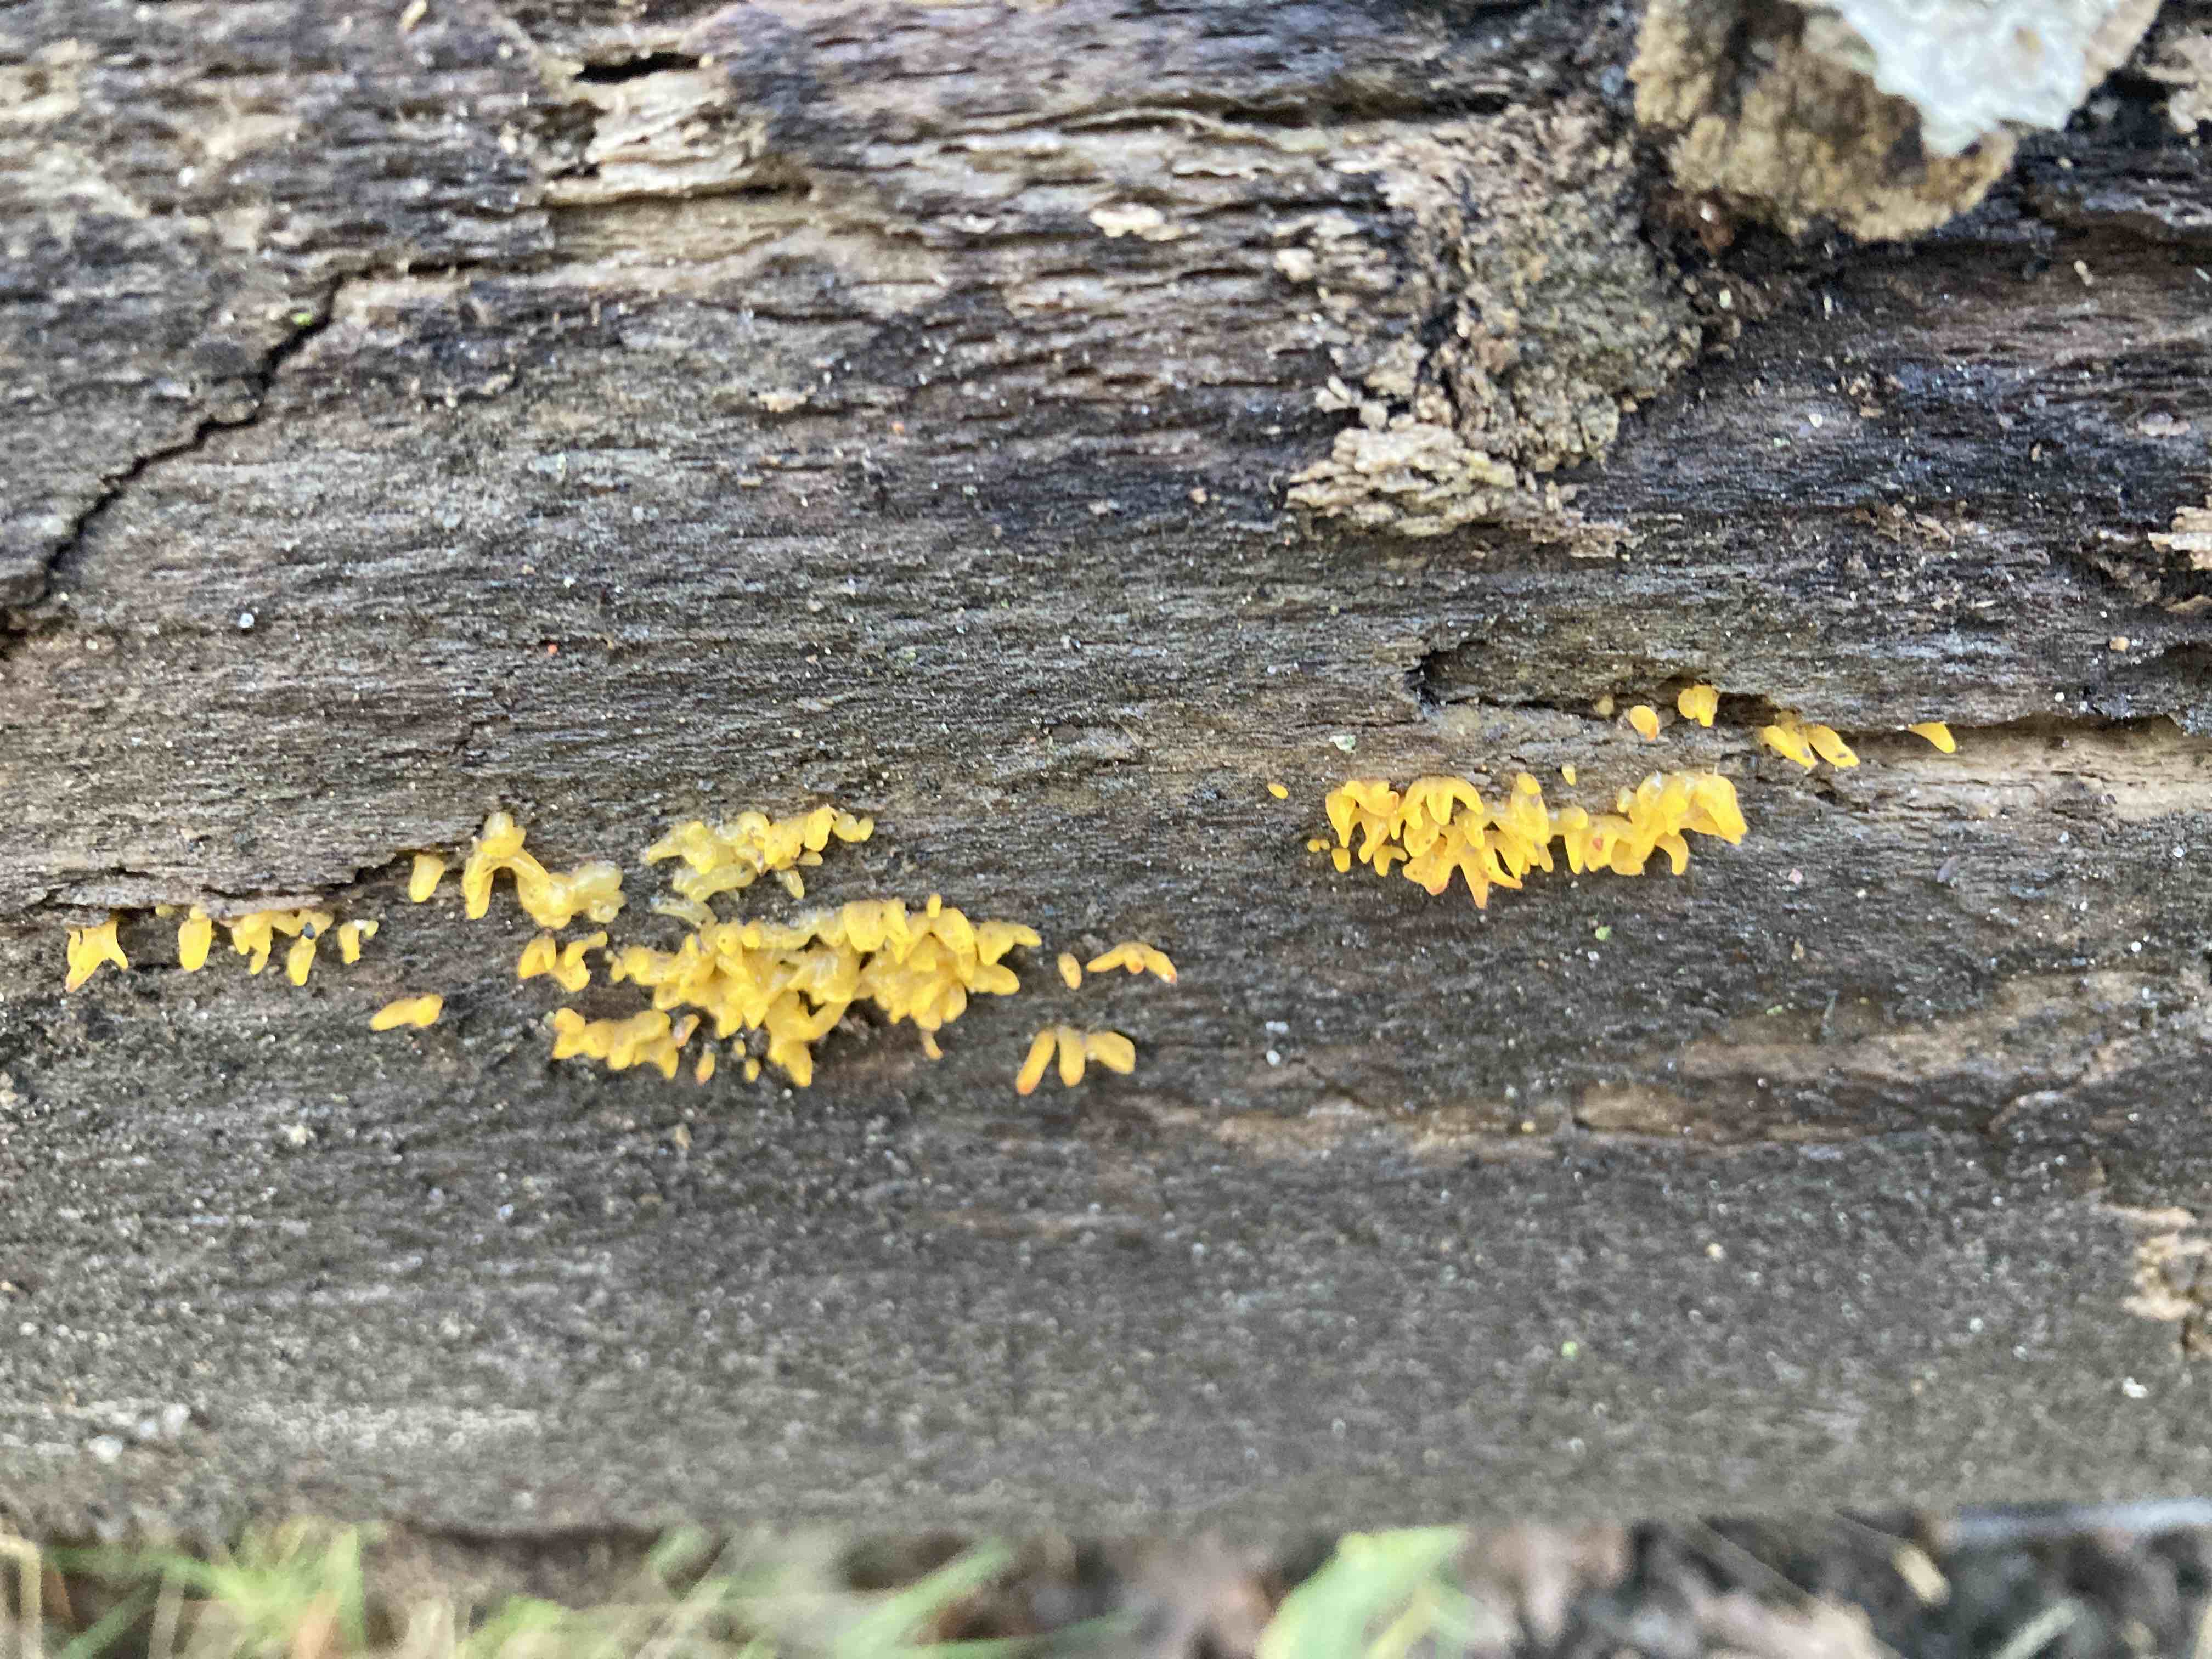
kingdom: Fungi
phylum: Basidiomycota
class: Dacrymycetes
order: Dacrymycetales
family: Dacrymycetaceae
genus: Calocera
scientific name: Calocera cornea
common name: liden guldgaffel
